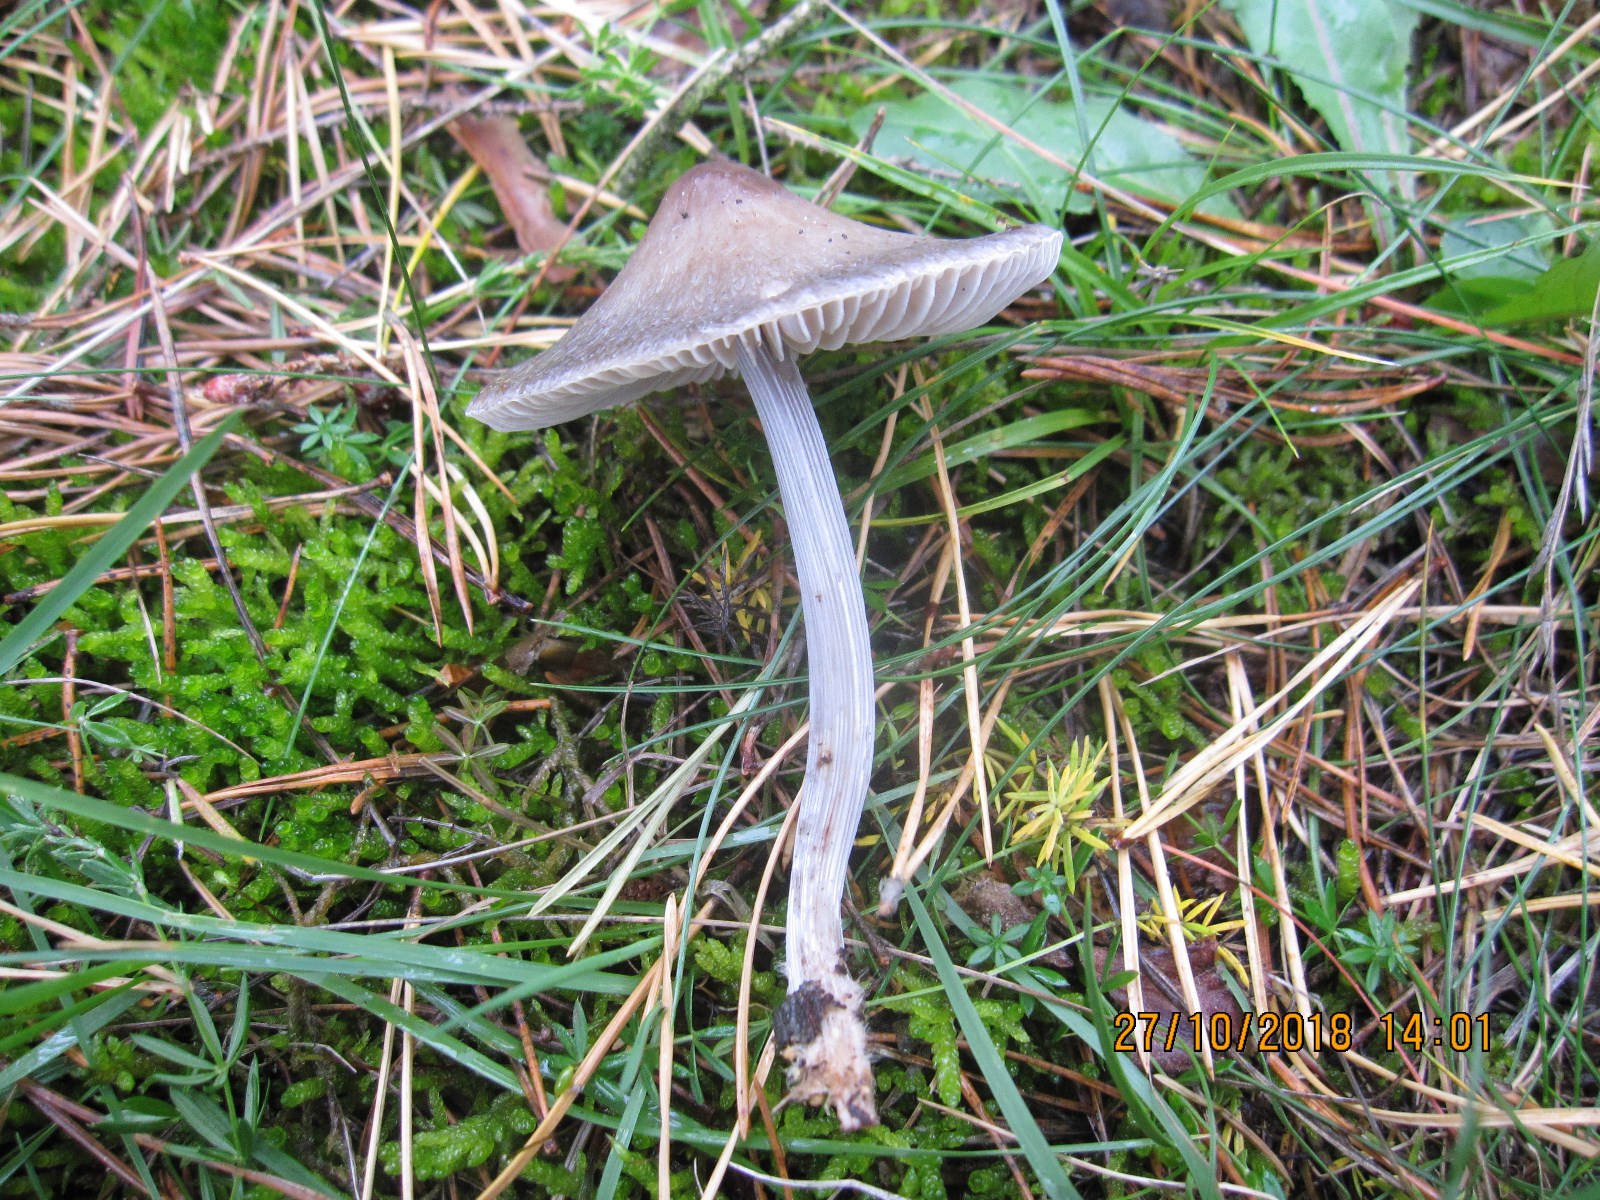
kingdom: Fungi
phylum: Basidiomycota
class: Agaricomycetes
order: Agaricales
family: Mycenaceae
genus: Mycena
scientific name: Mycena polygramma
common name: mangestribet huesvamp
